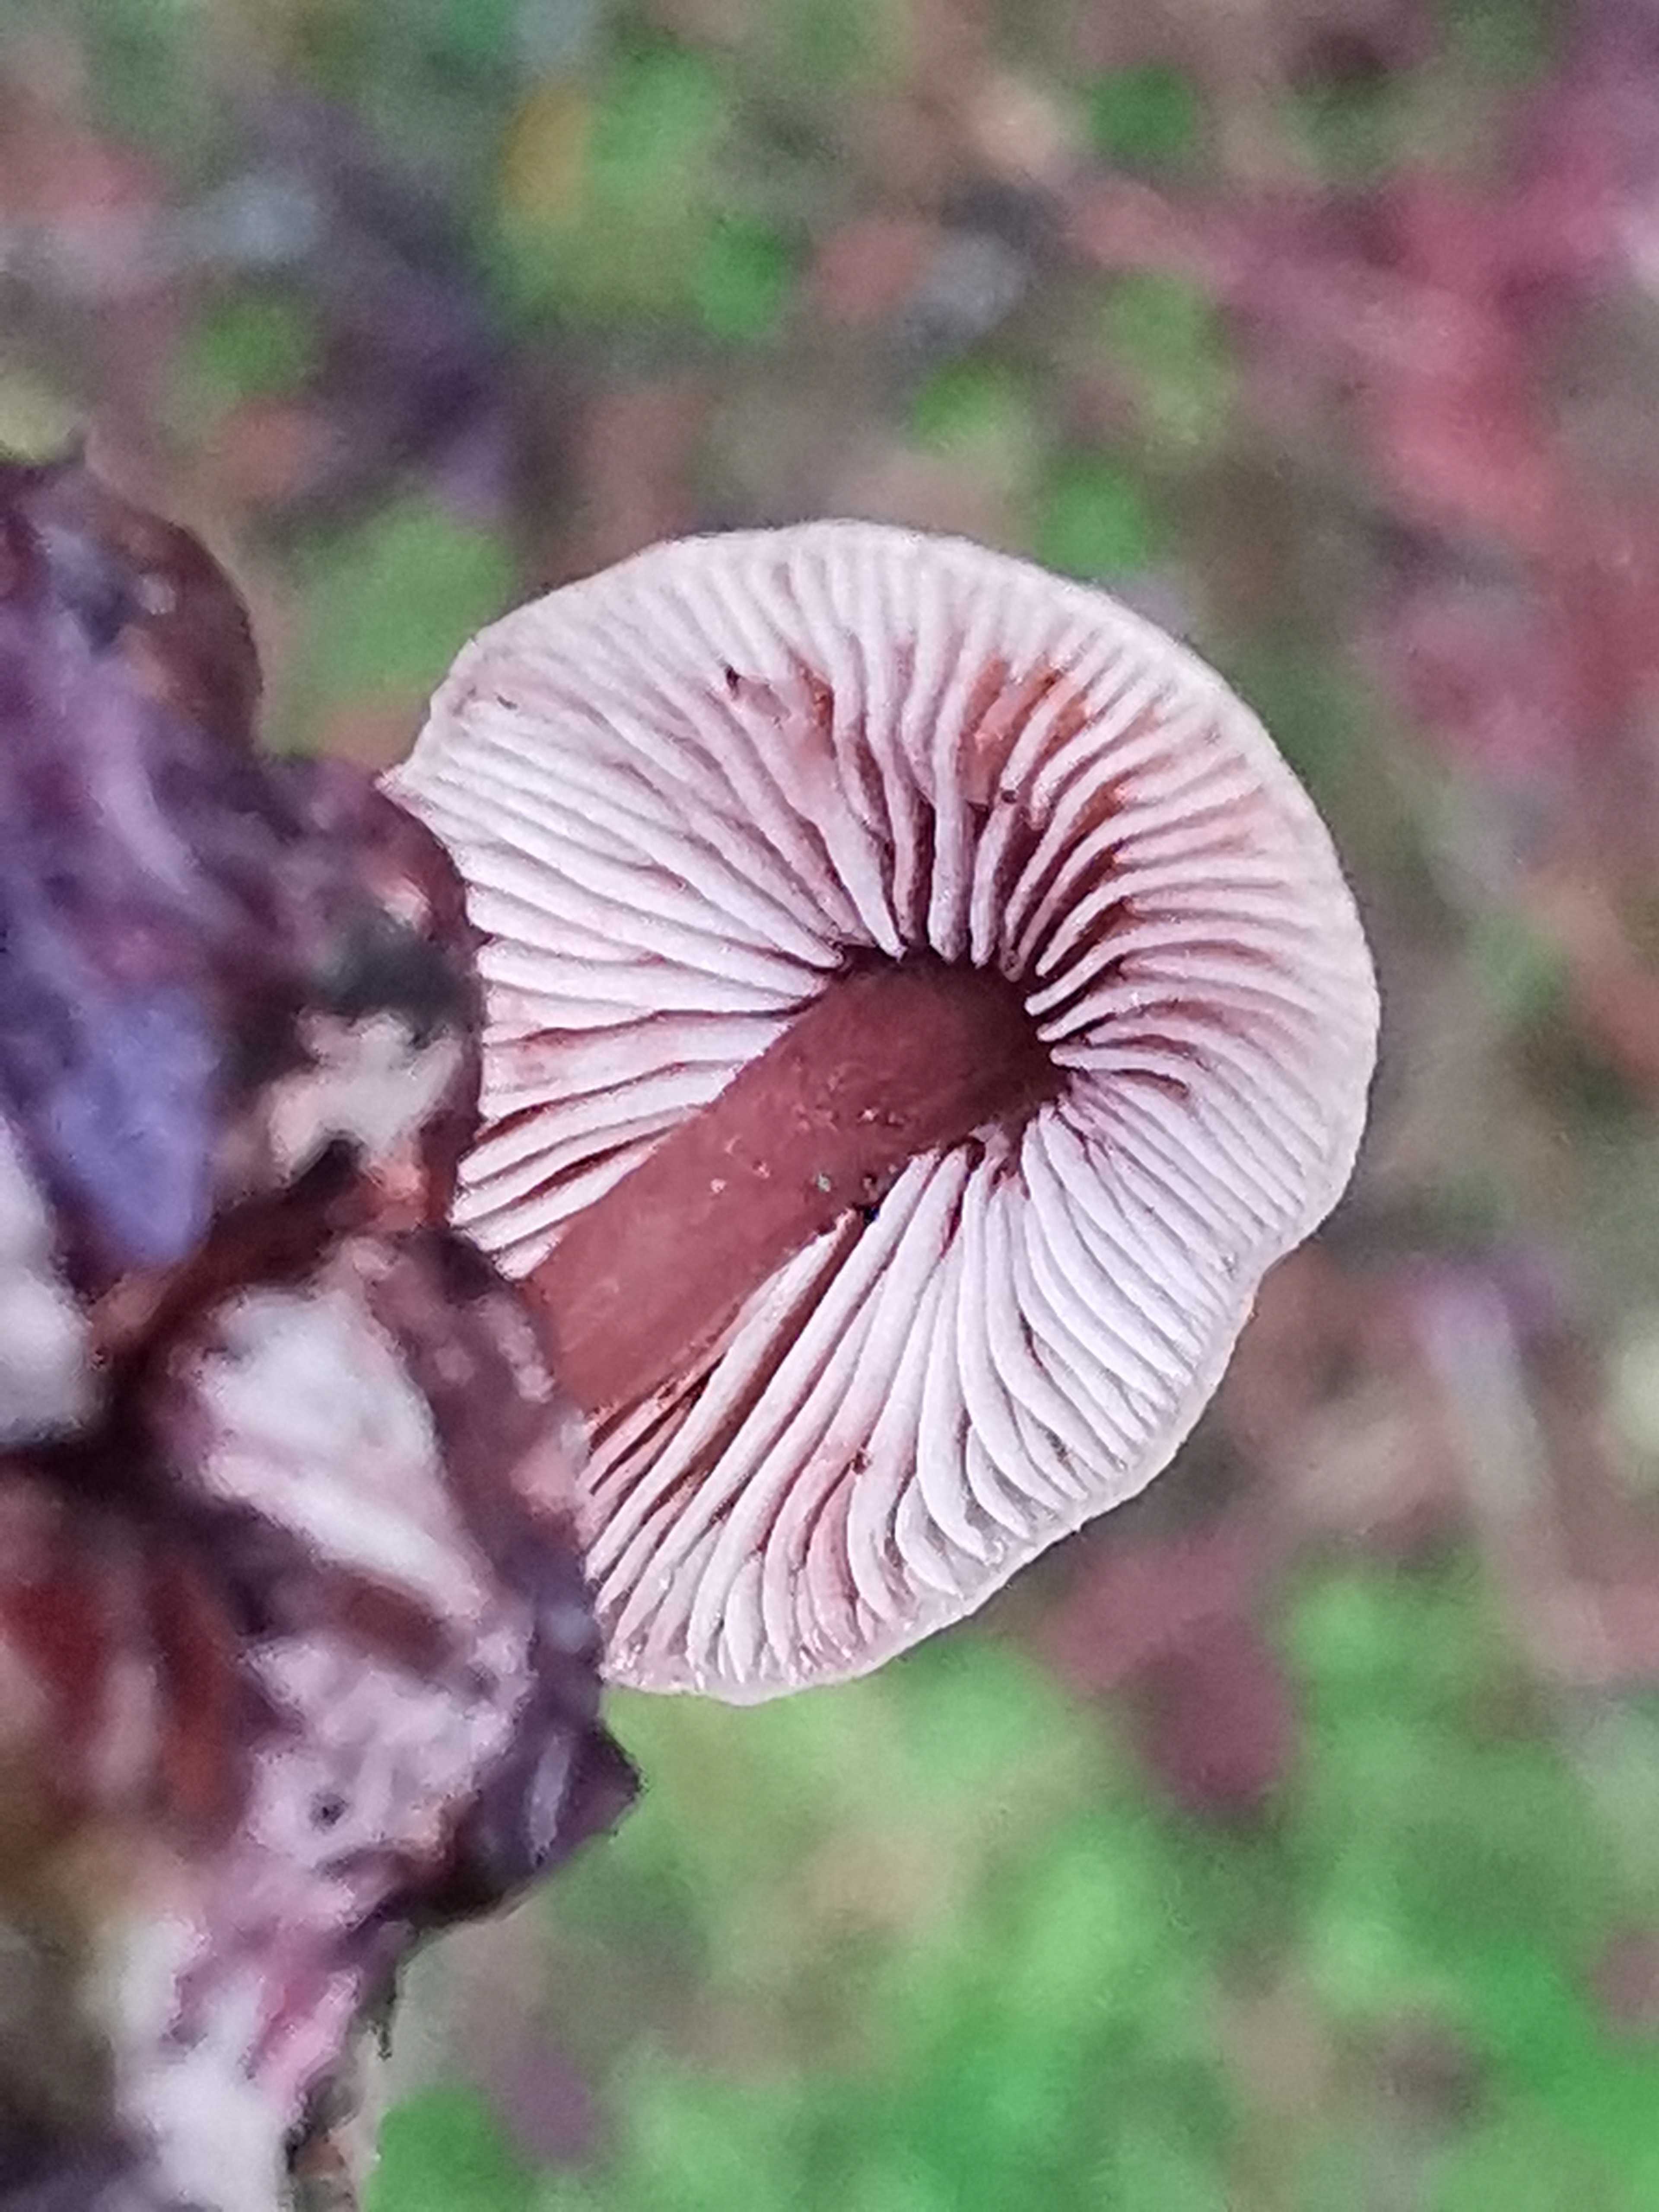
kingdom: Fungi
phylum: Basidiomycota
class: Agaricomycetes
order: Agaricales
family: Marasmiaceae
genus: Baeospora
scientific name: Baeospora myosura
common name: koglebruskhat
